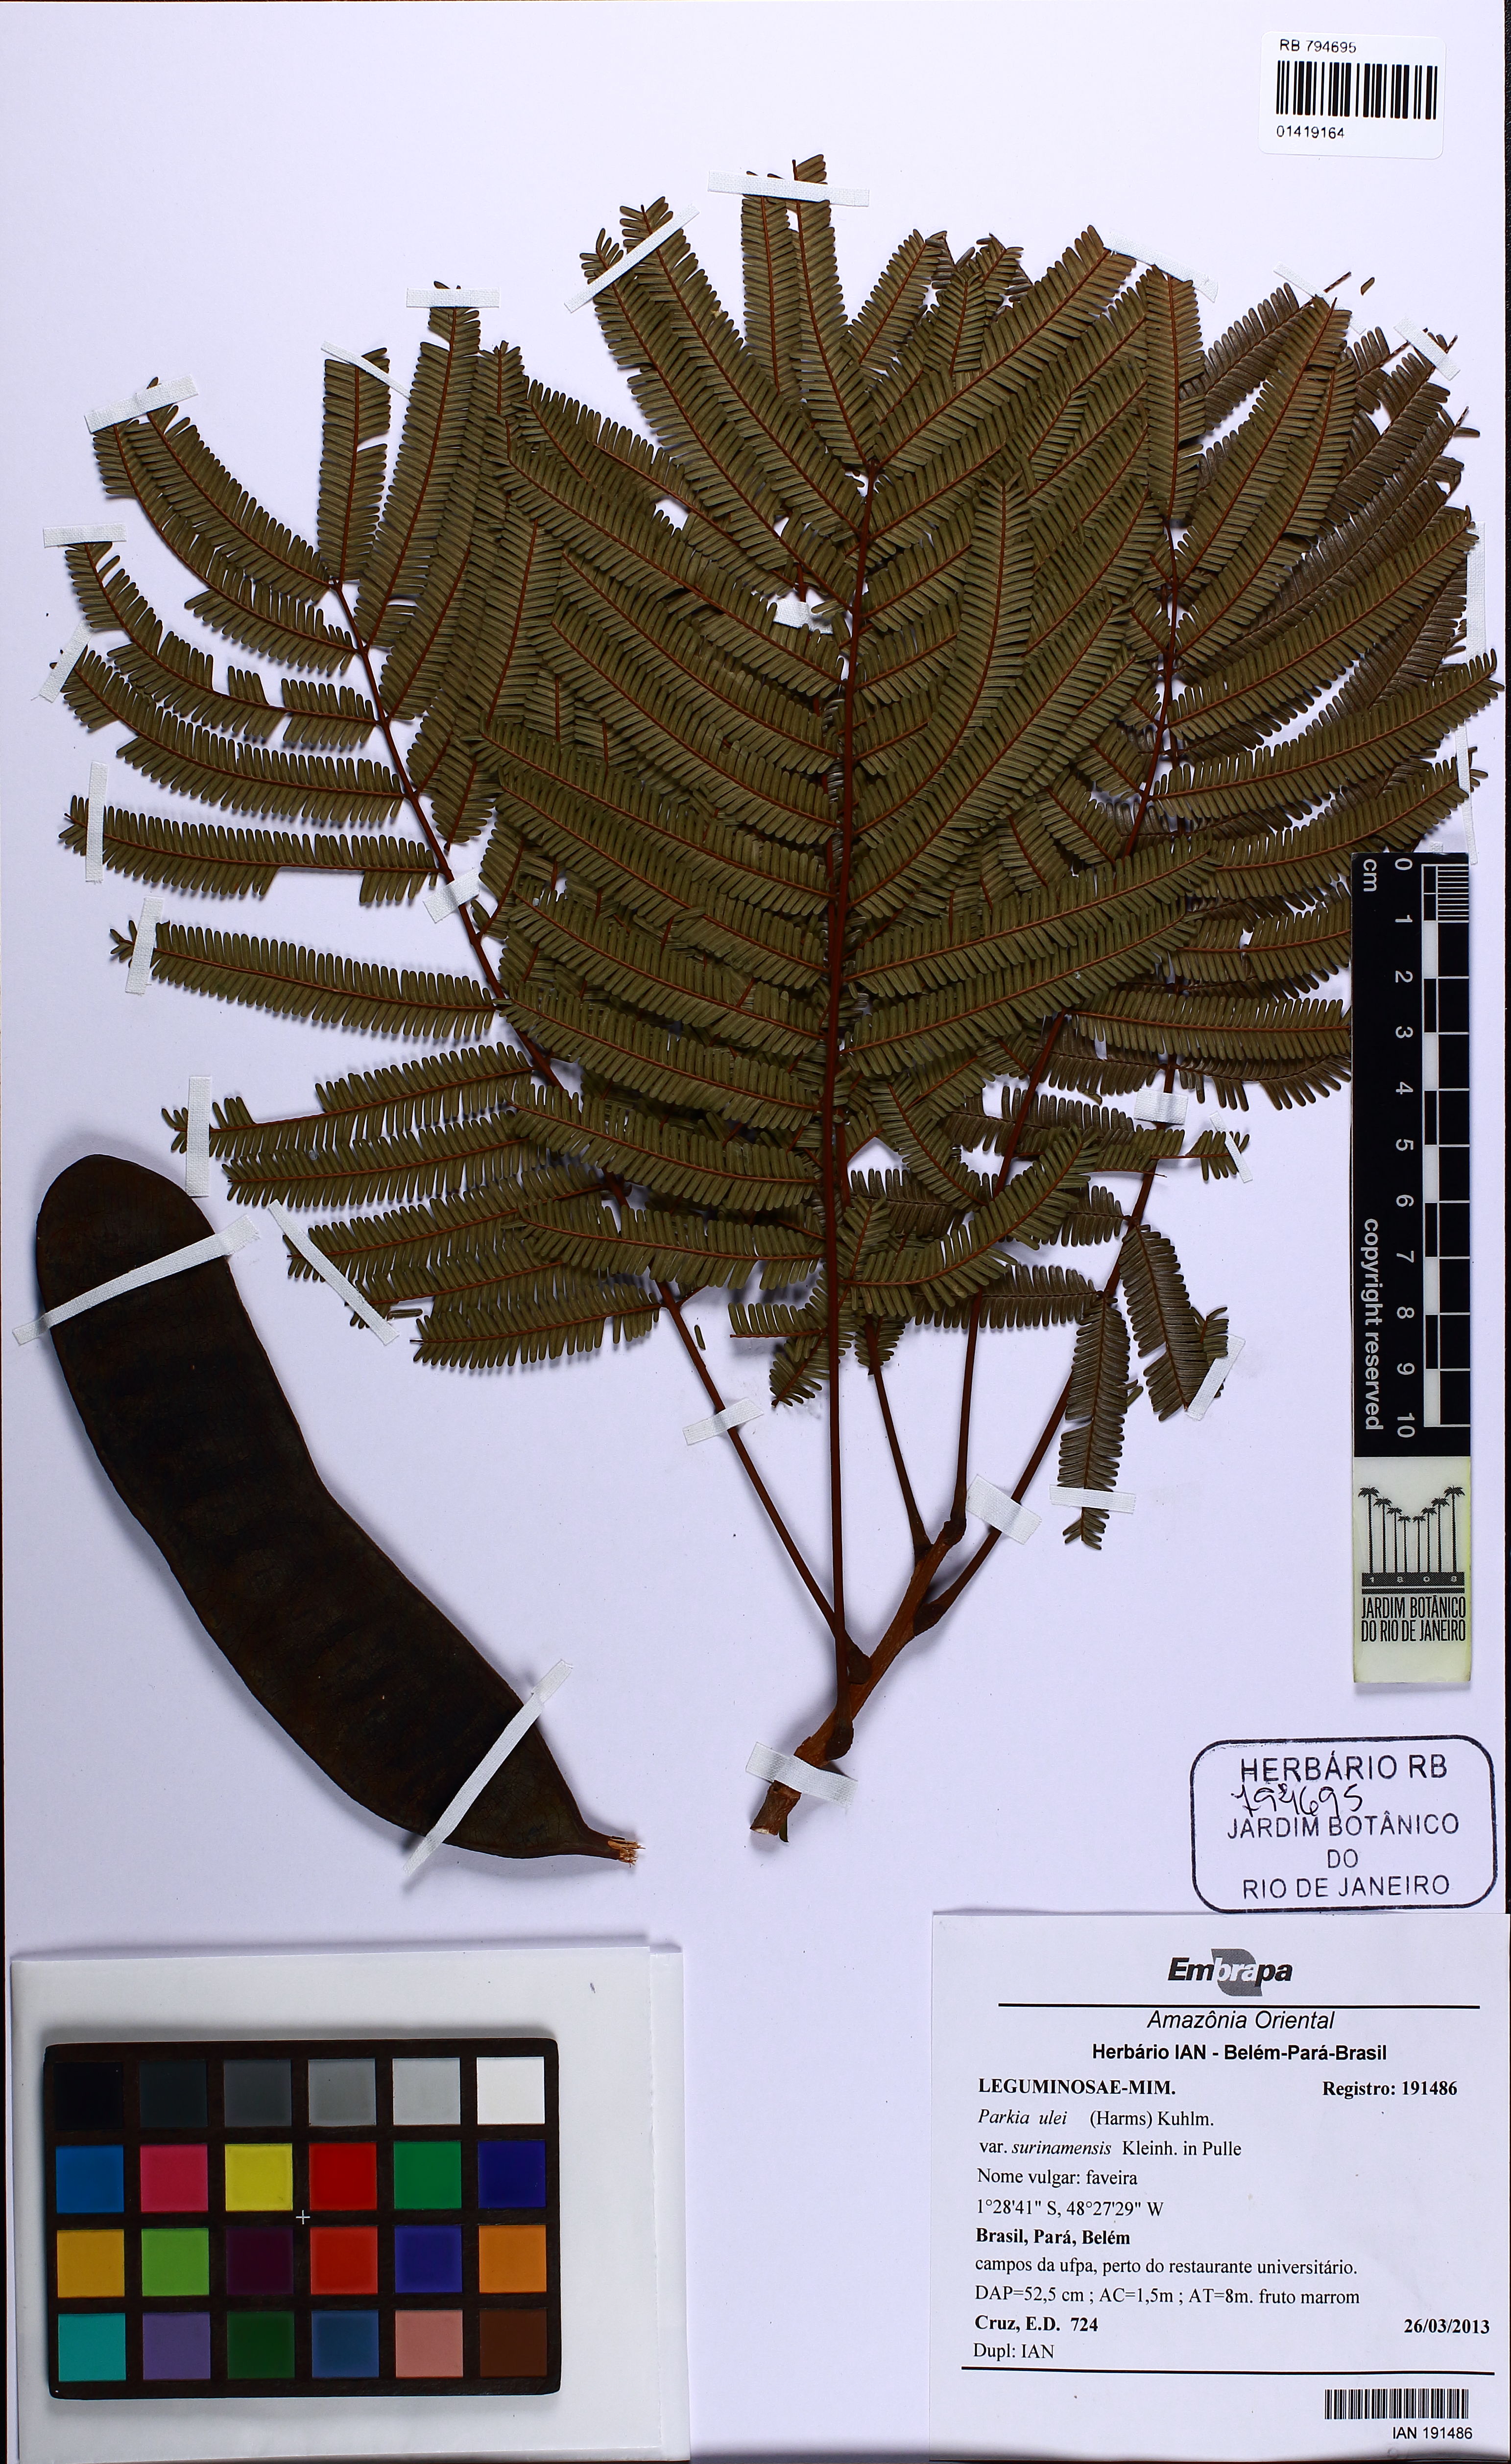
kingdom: Plantae
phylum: Tracheophyta
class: Magnoliopsida
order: Fabales
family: Fabaceae
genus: Parkia
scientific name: Parkia ulei
